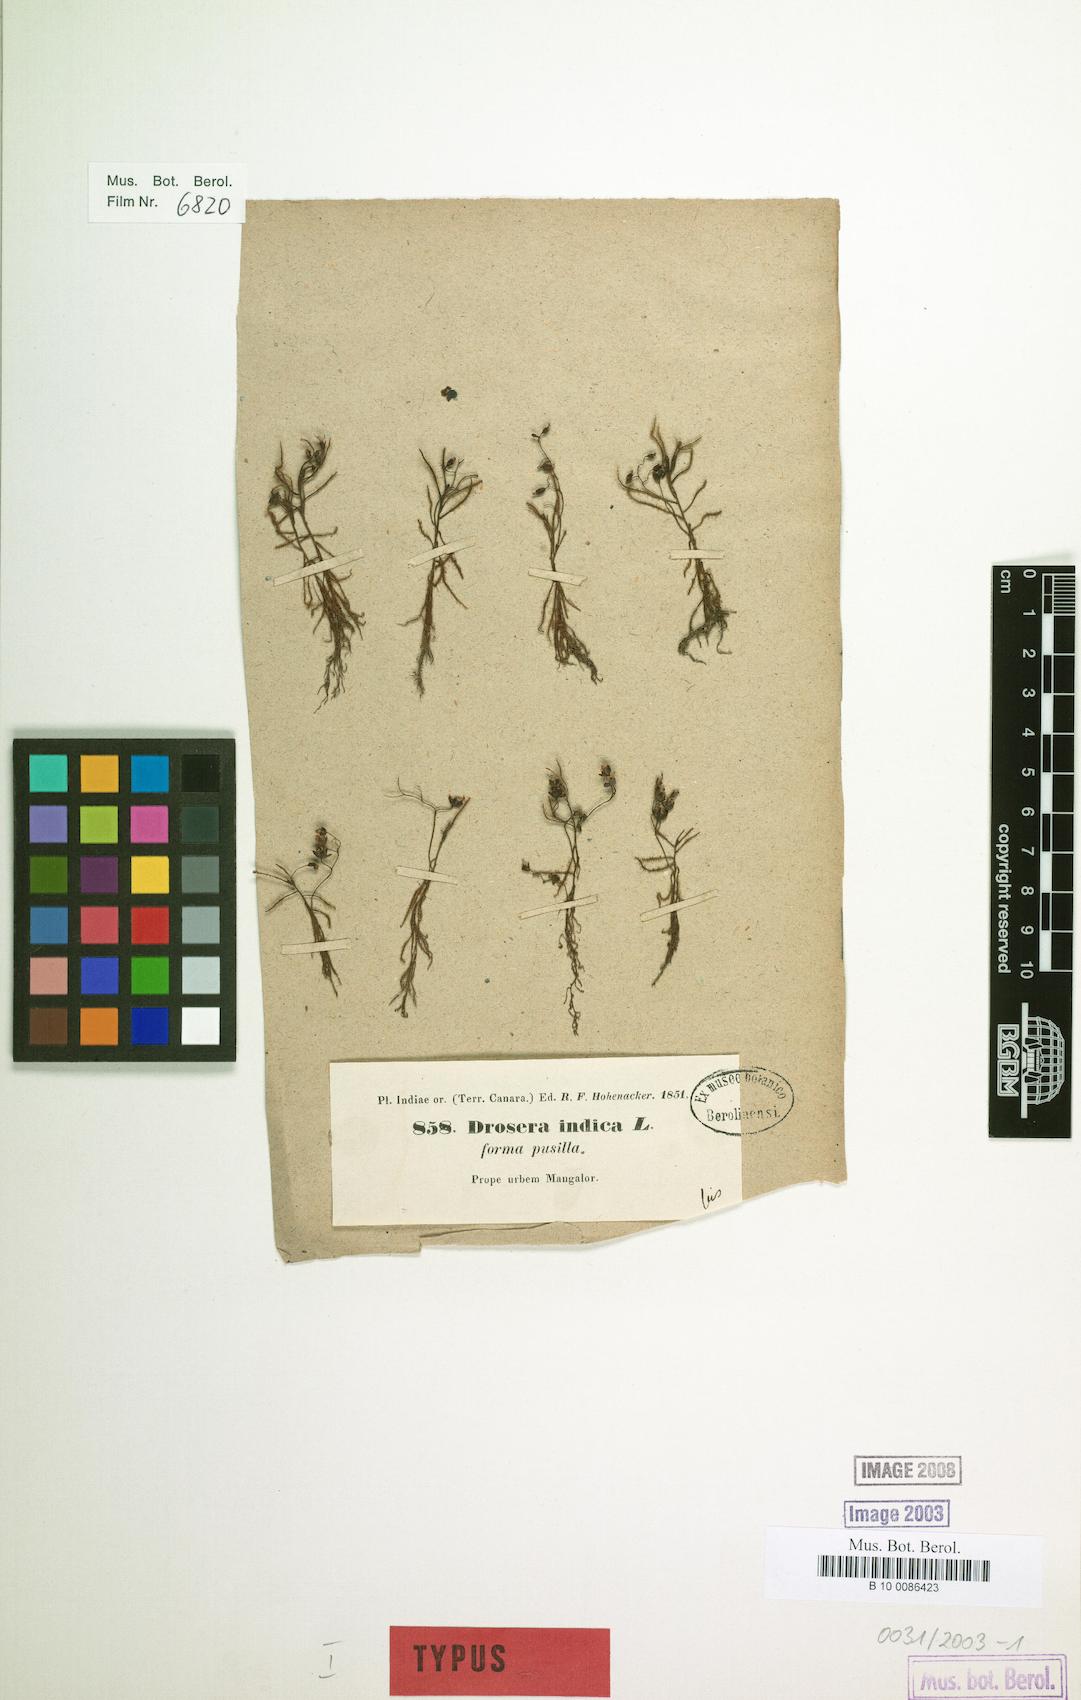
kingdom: Plantae
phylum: Tracheophyta
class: Magnoliopsida
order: Caryophyllales
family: Droseraceae
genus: Drosera
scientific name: Drosera indica
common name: Indian sundew
